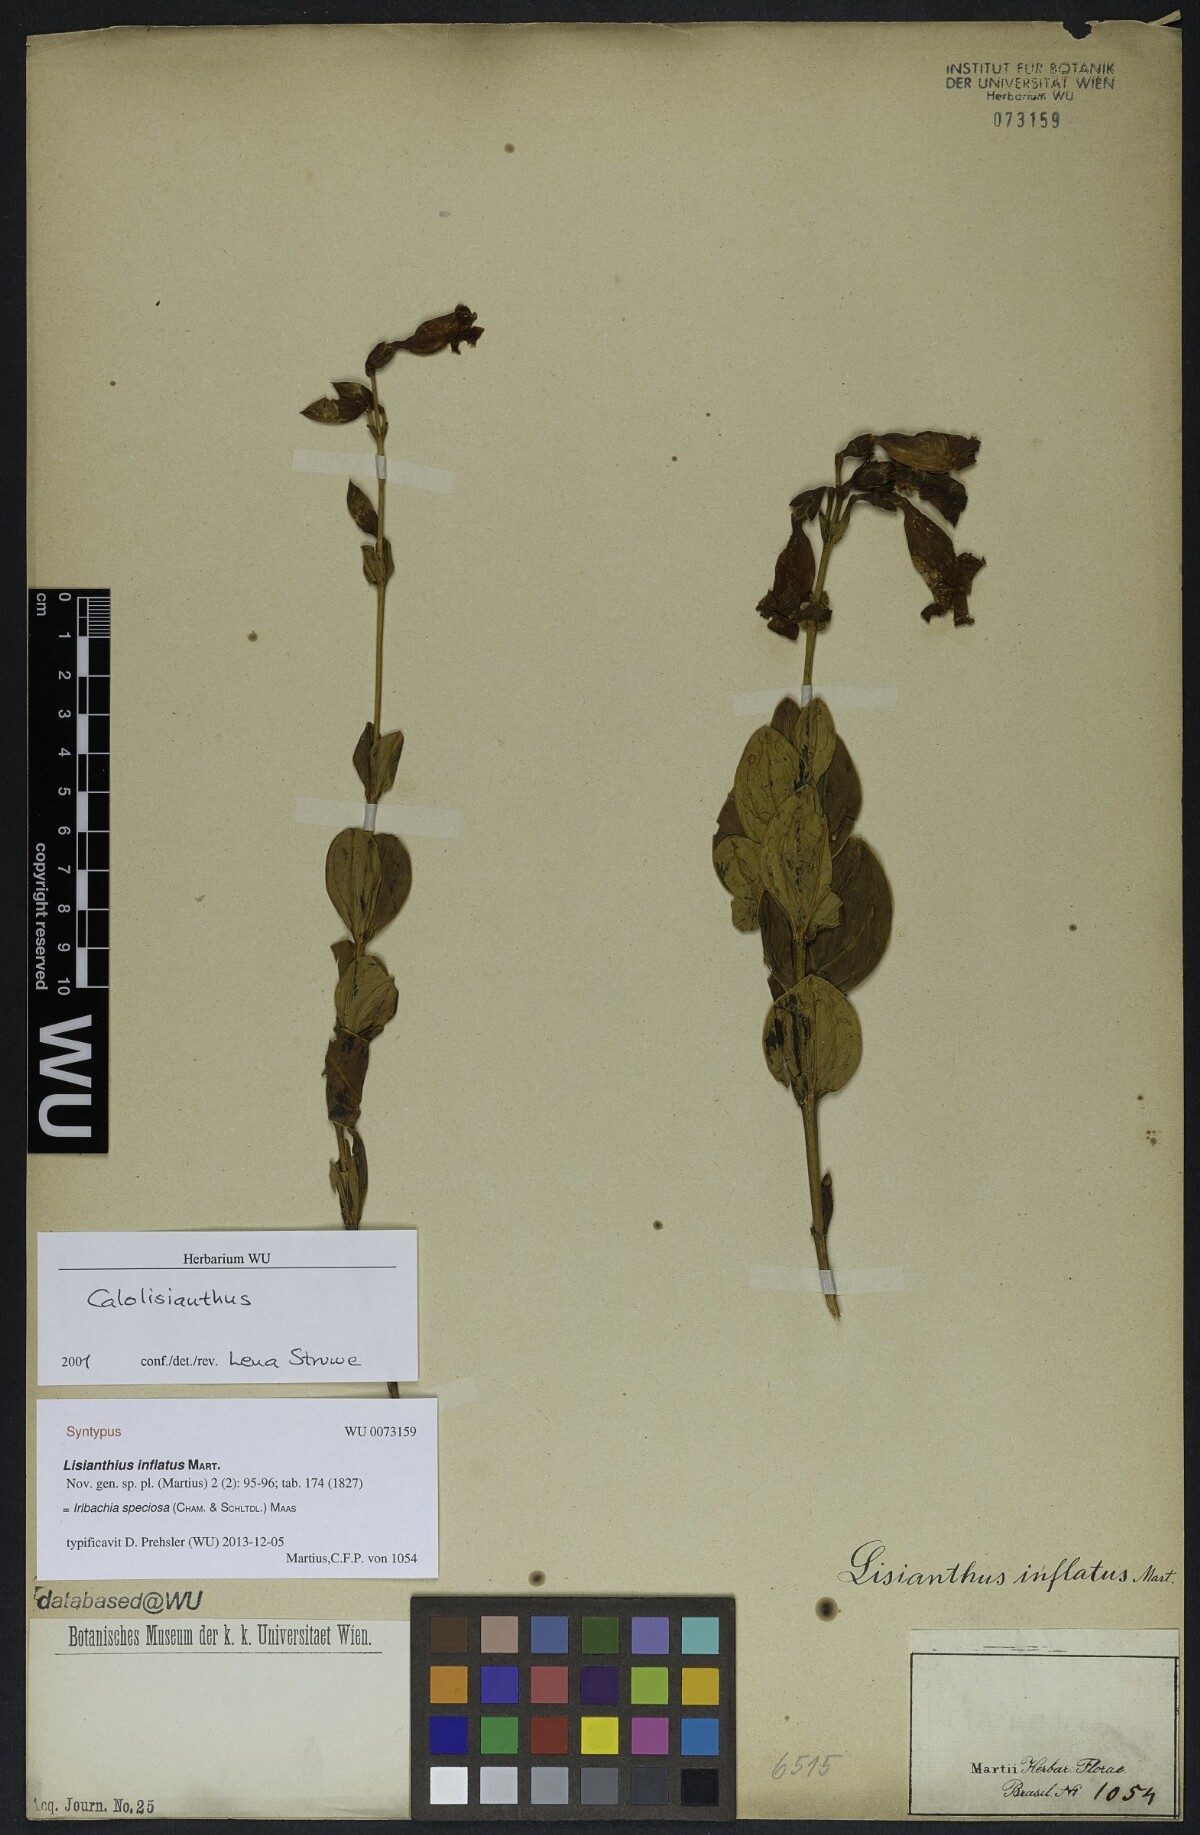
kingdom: Plantae
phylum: Tracheophyta
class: Magnoliopsida
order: Gentianales
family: Gentianaceae
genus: Calolisianthus
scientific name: Calolisianthus speciosus
